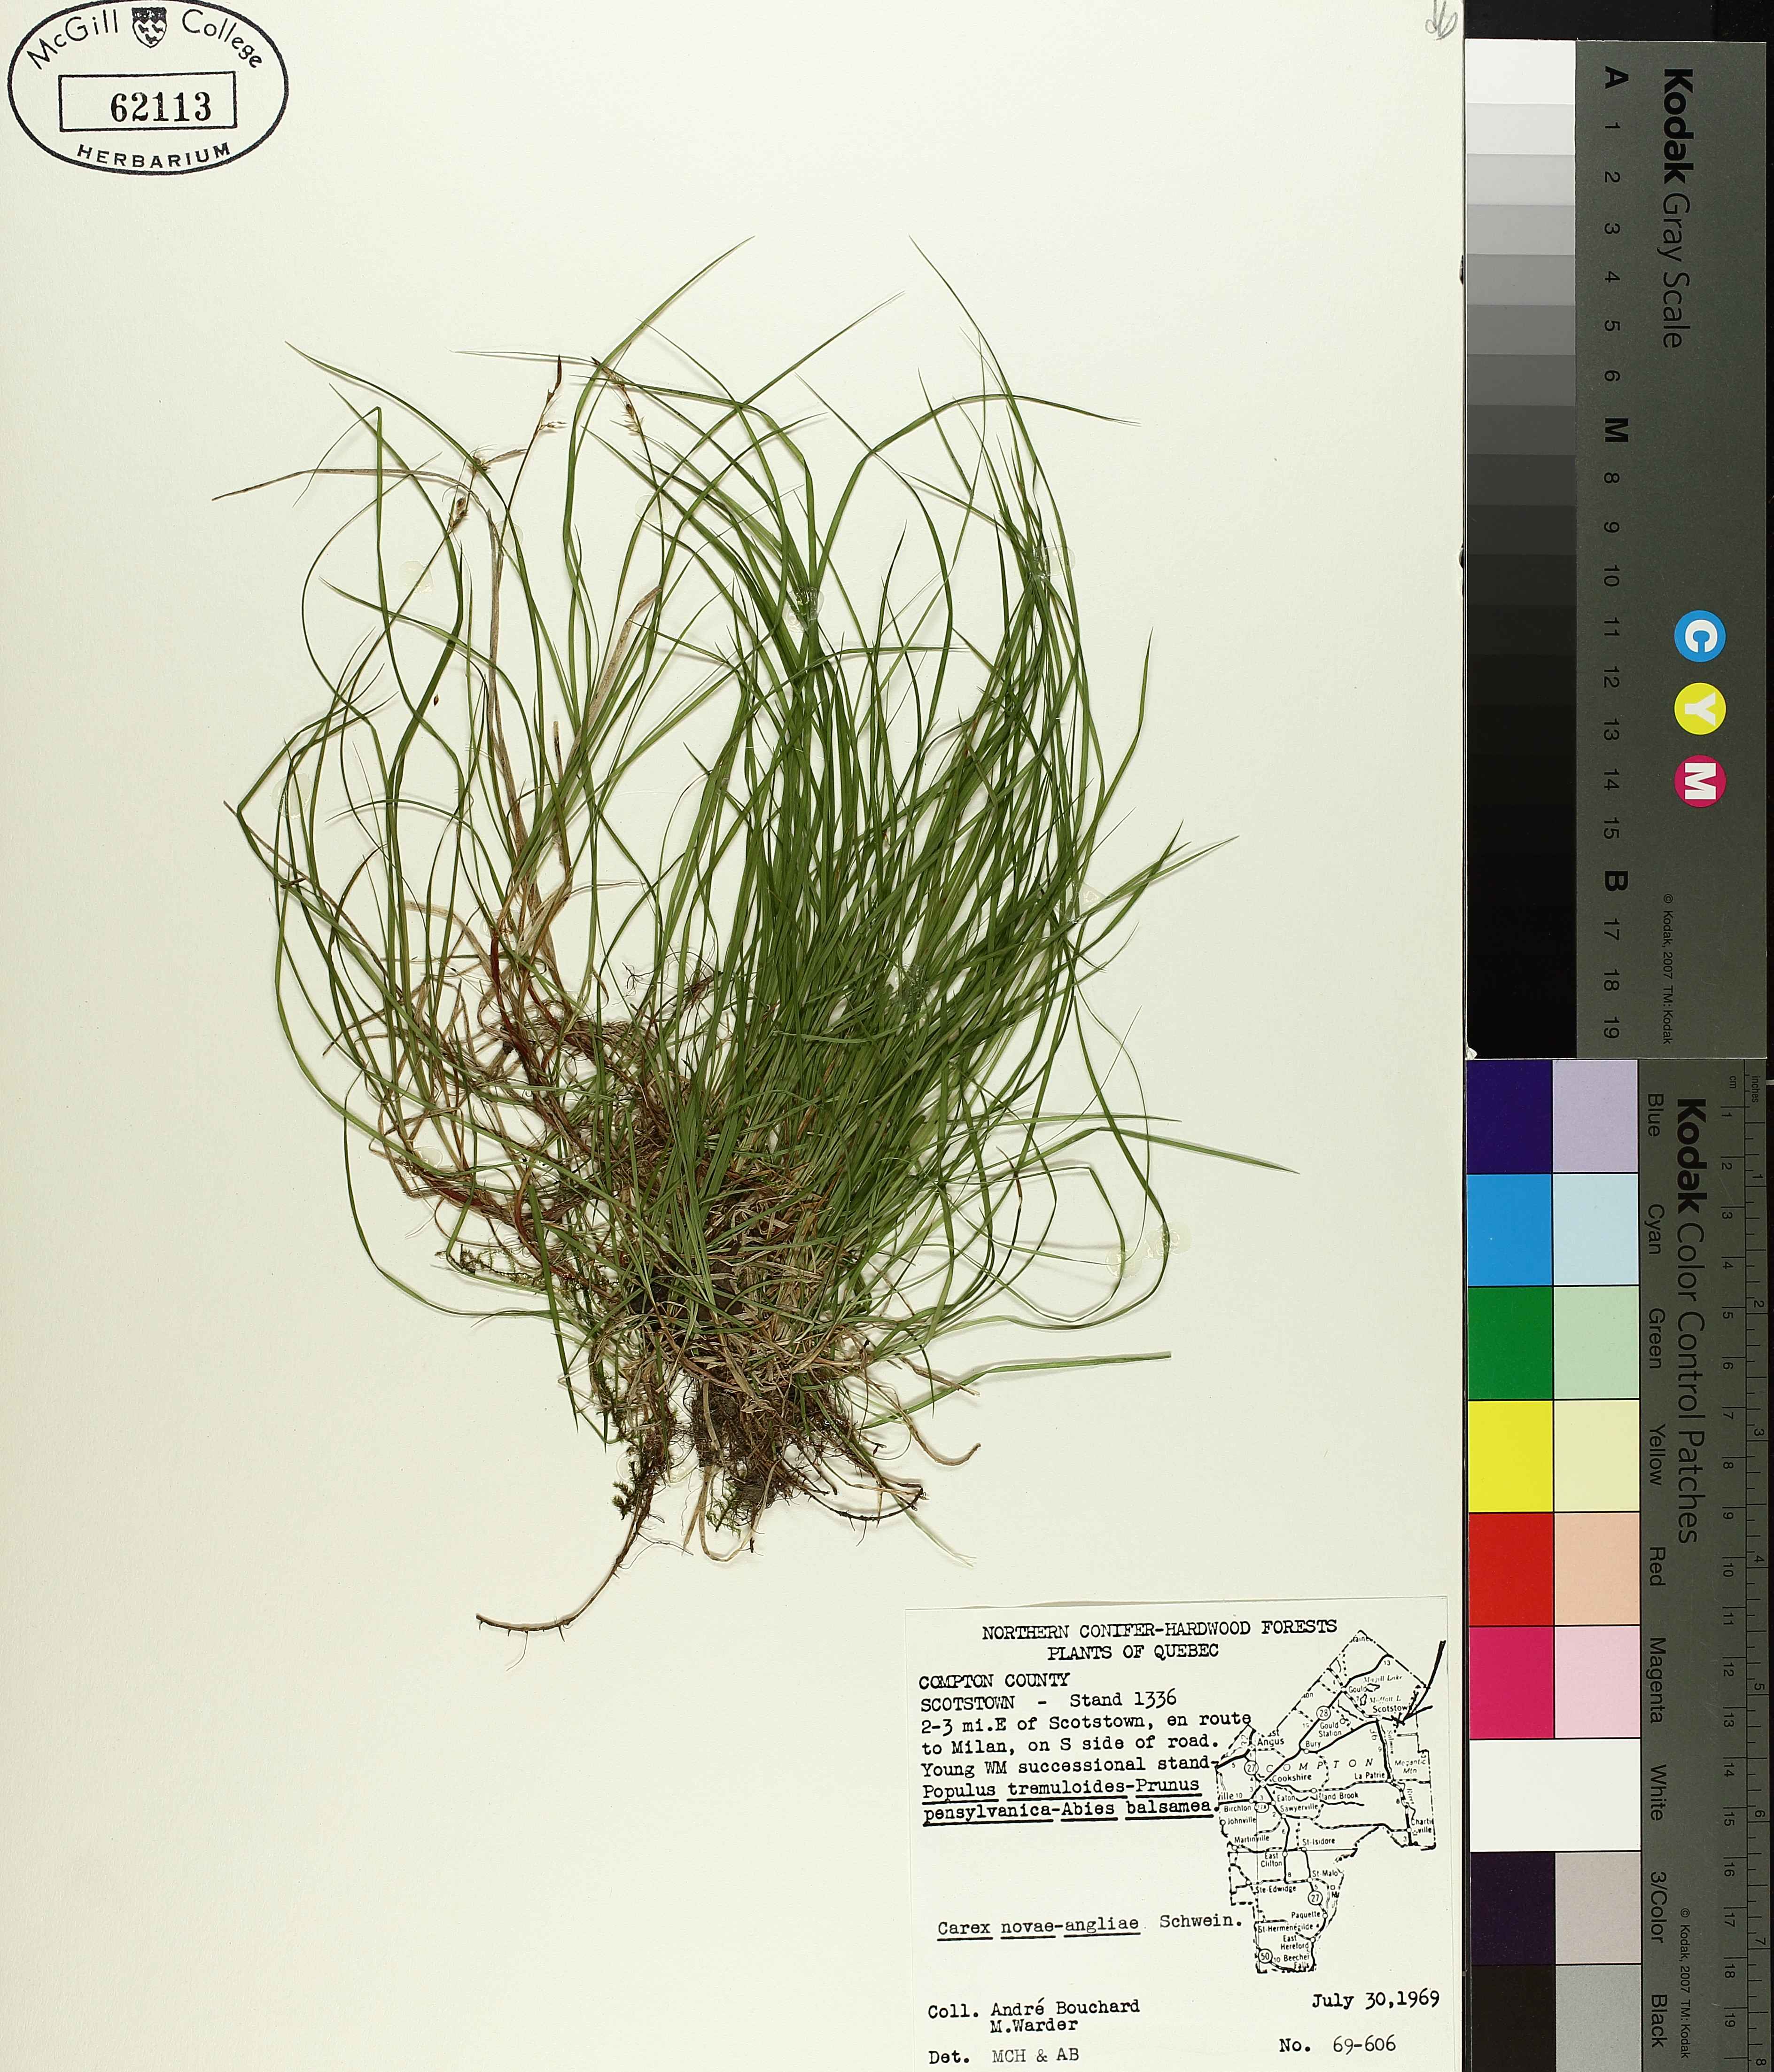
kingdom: Plantae
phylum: Tracheophyta
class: Liliopsida
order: Poales
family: Cyperaceae
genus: Carex
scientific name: Carex novae-angliae
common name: New england sedge
